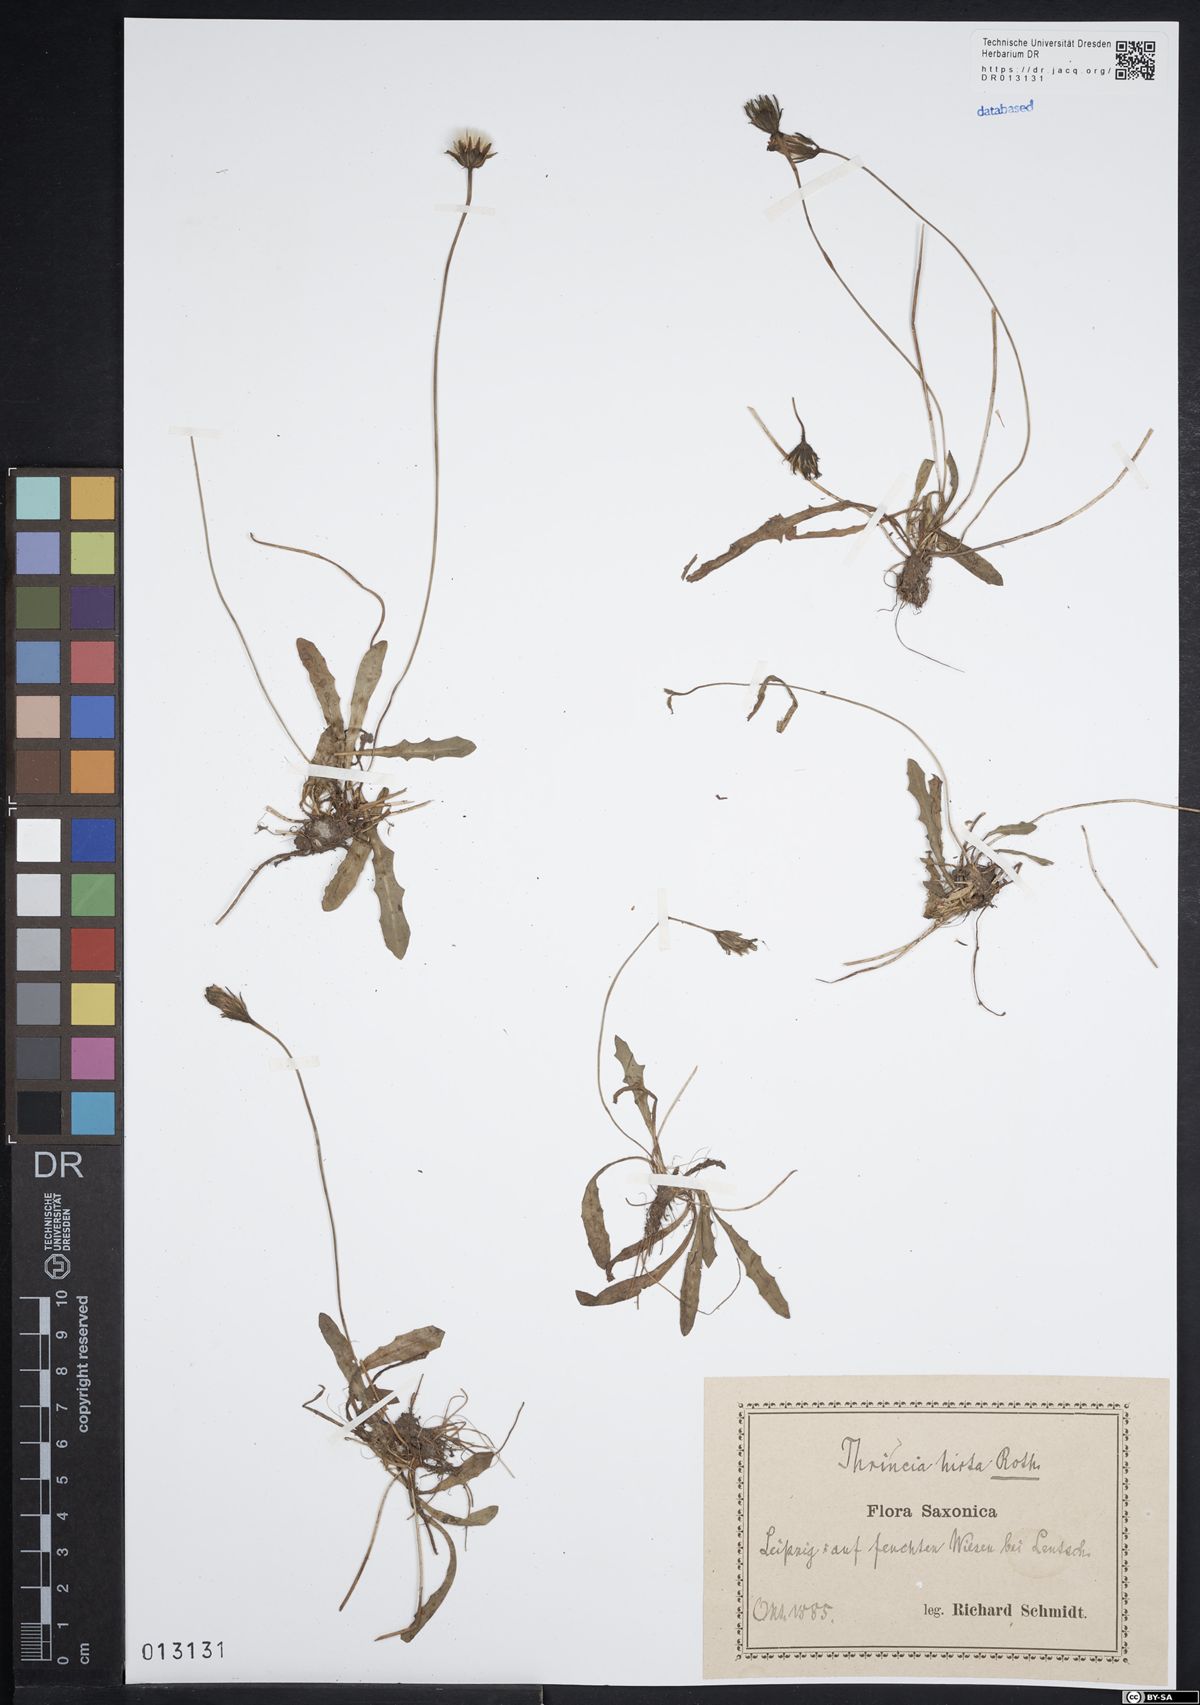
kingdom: Plantae
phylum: Tracheophyta
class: Magnoliopsida
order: Asterales
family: Asteraceae
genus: Thrincia
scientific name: Thrincia saxatilis
